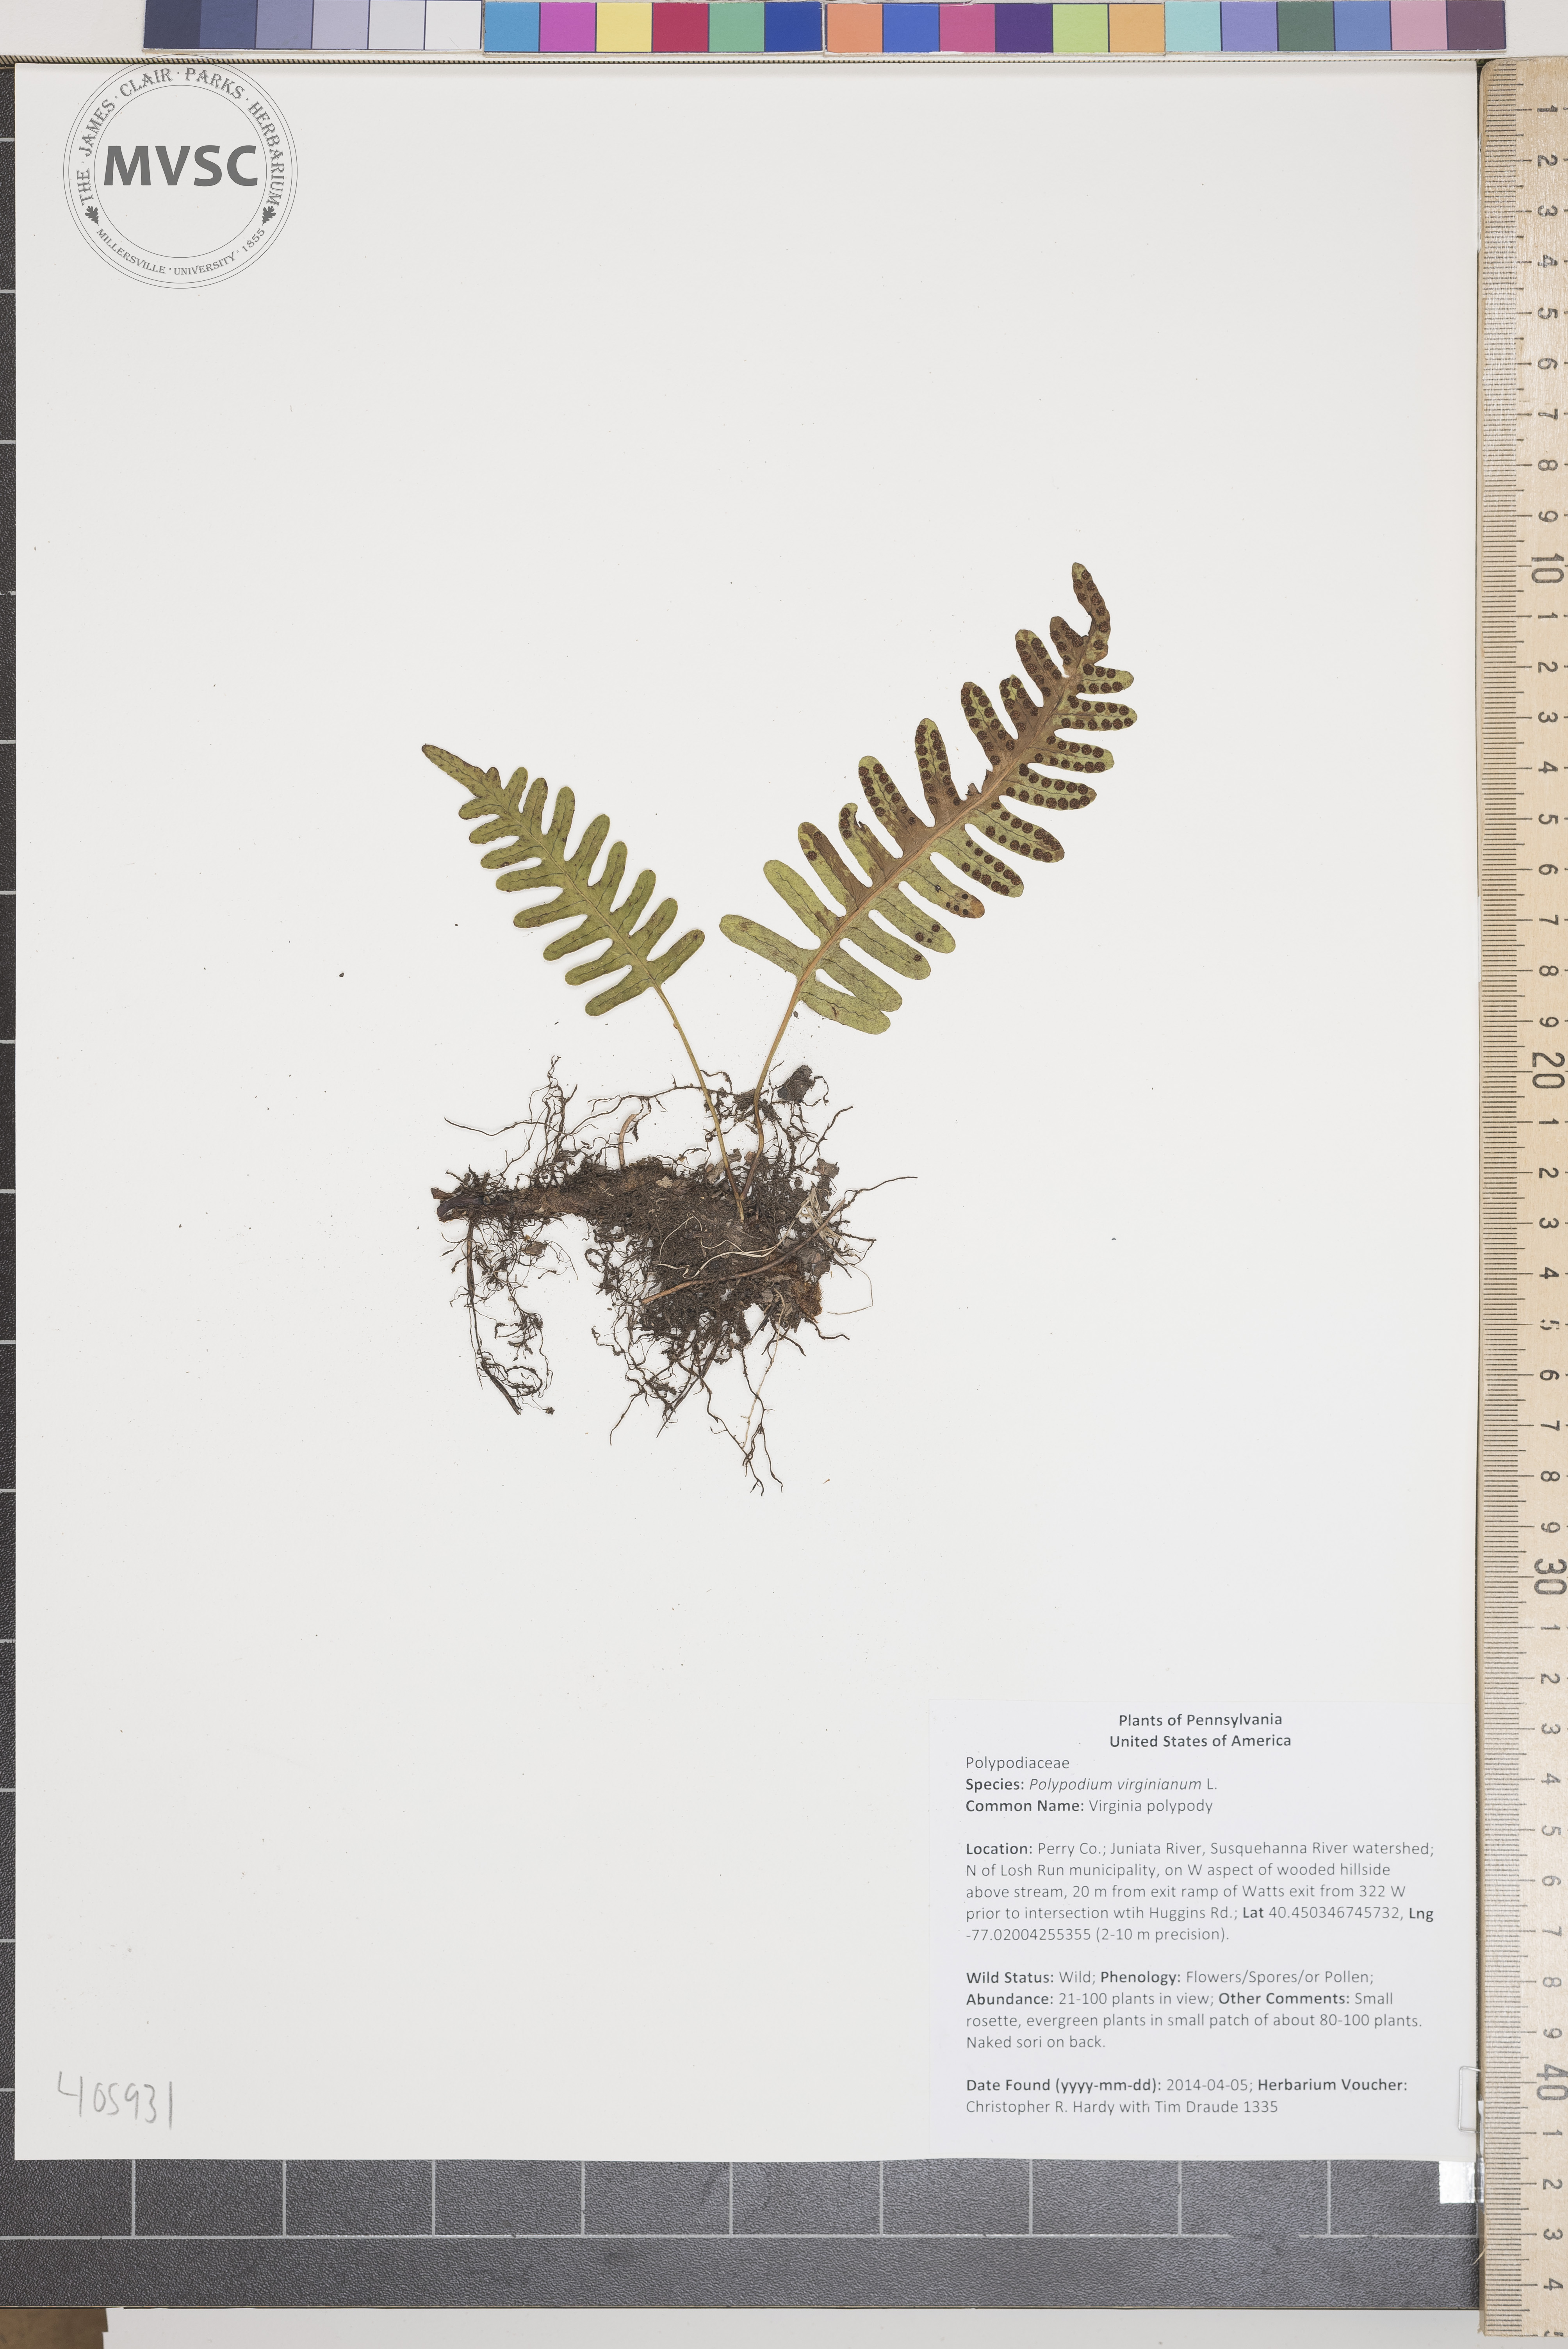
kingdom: Plantae
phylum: Tracheophyta
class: Polypodiopsida
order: Polypodiales
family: Polypodiaceae
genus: Polypodium
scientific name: Polypodium virginianum
